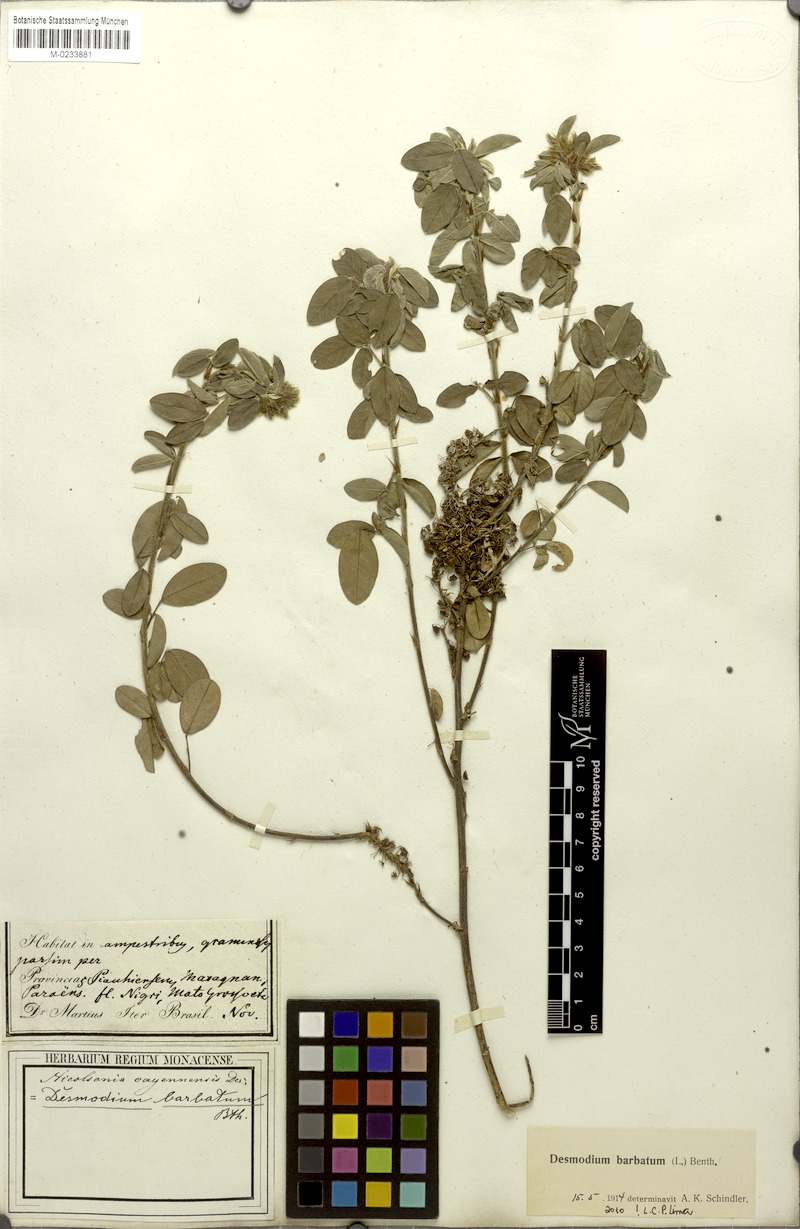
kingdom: Plantae
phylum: Tracheophyta
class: Magnoliopsida
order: Fabales
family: Fabaceae
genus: Grona
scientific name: Grona barbata
